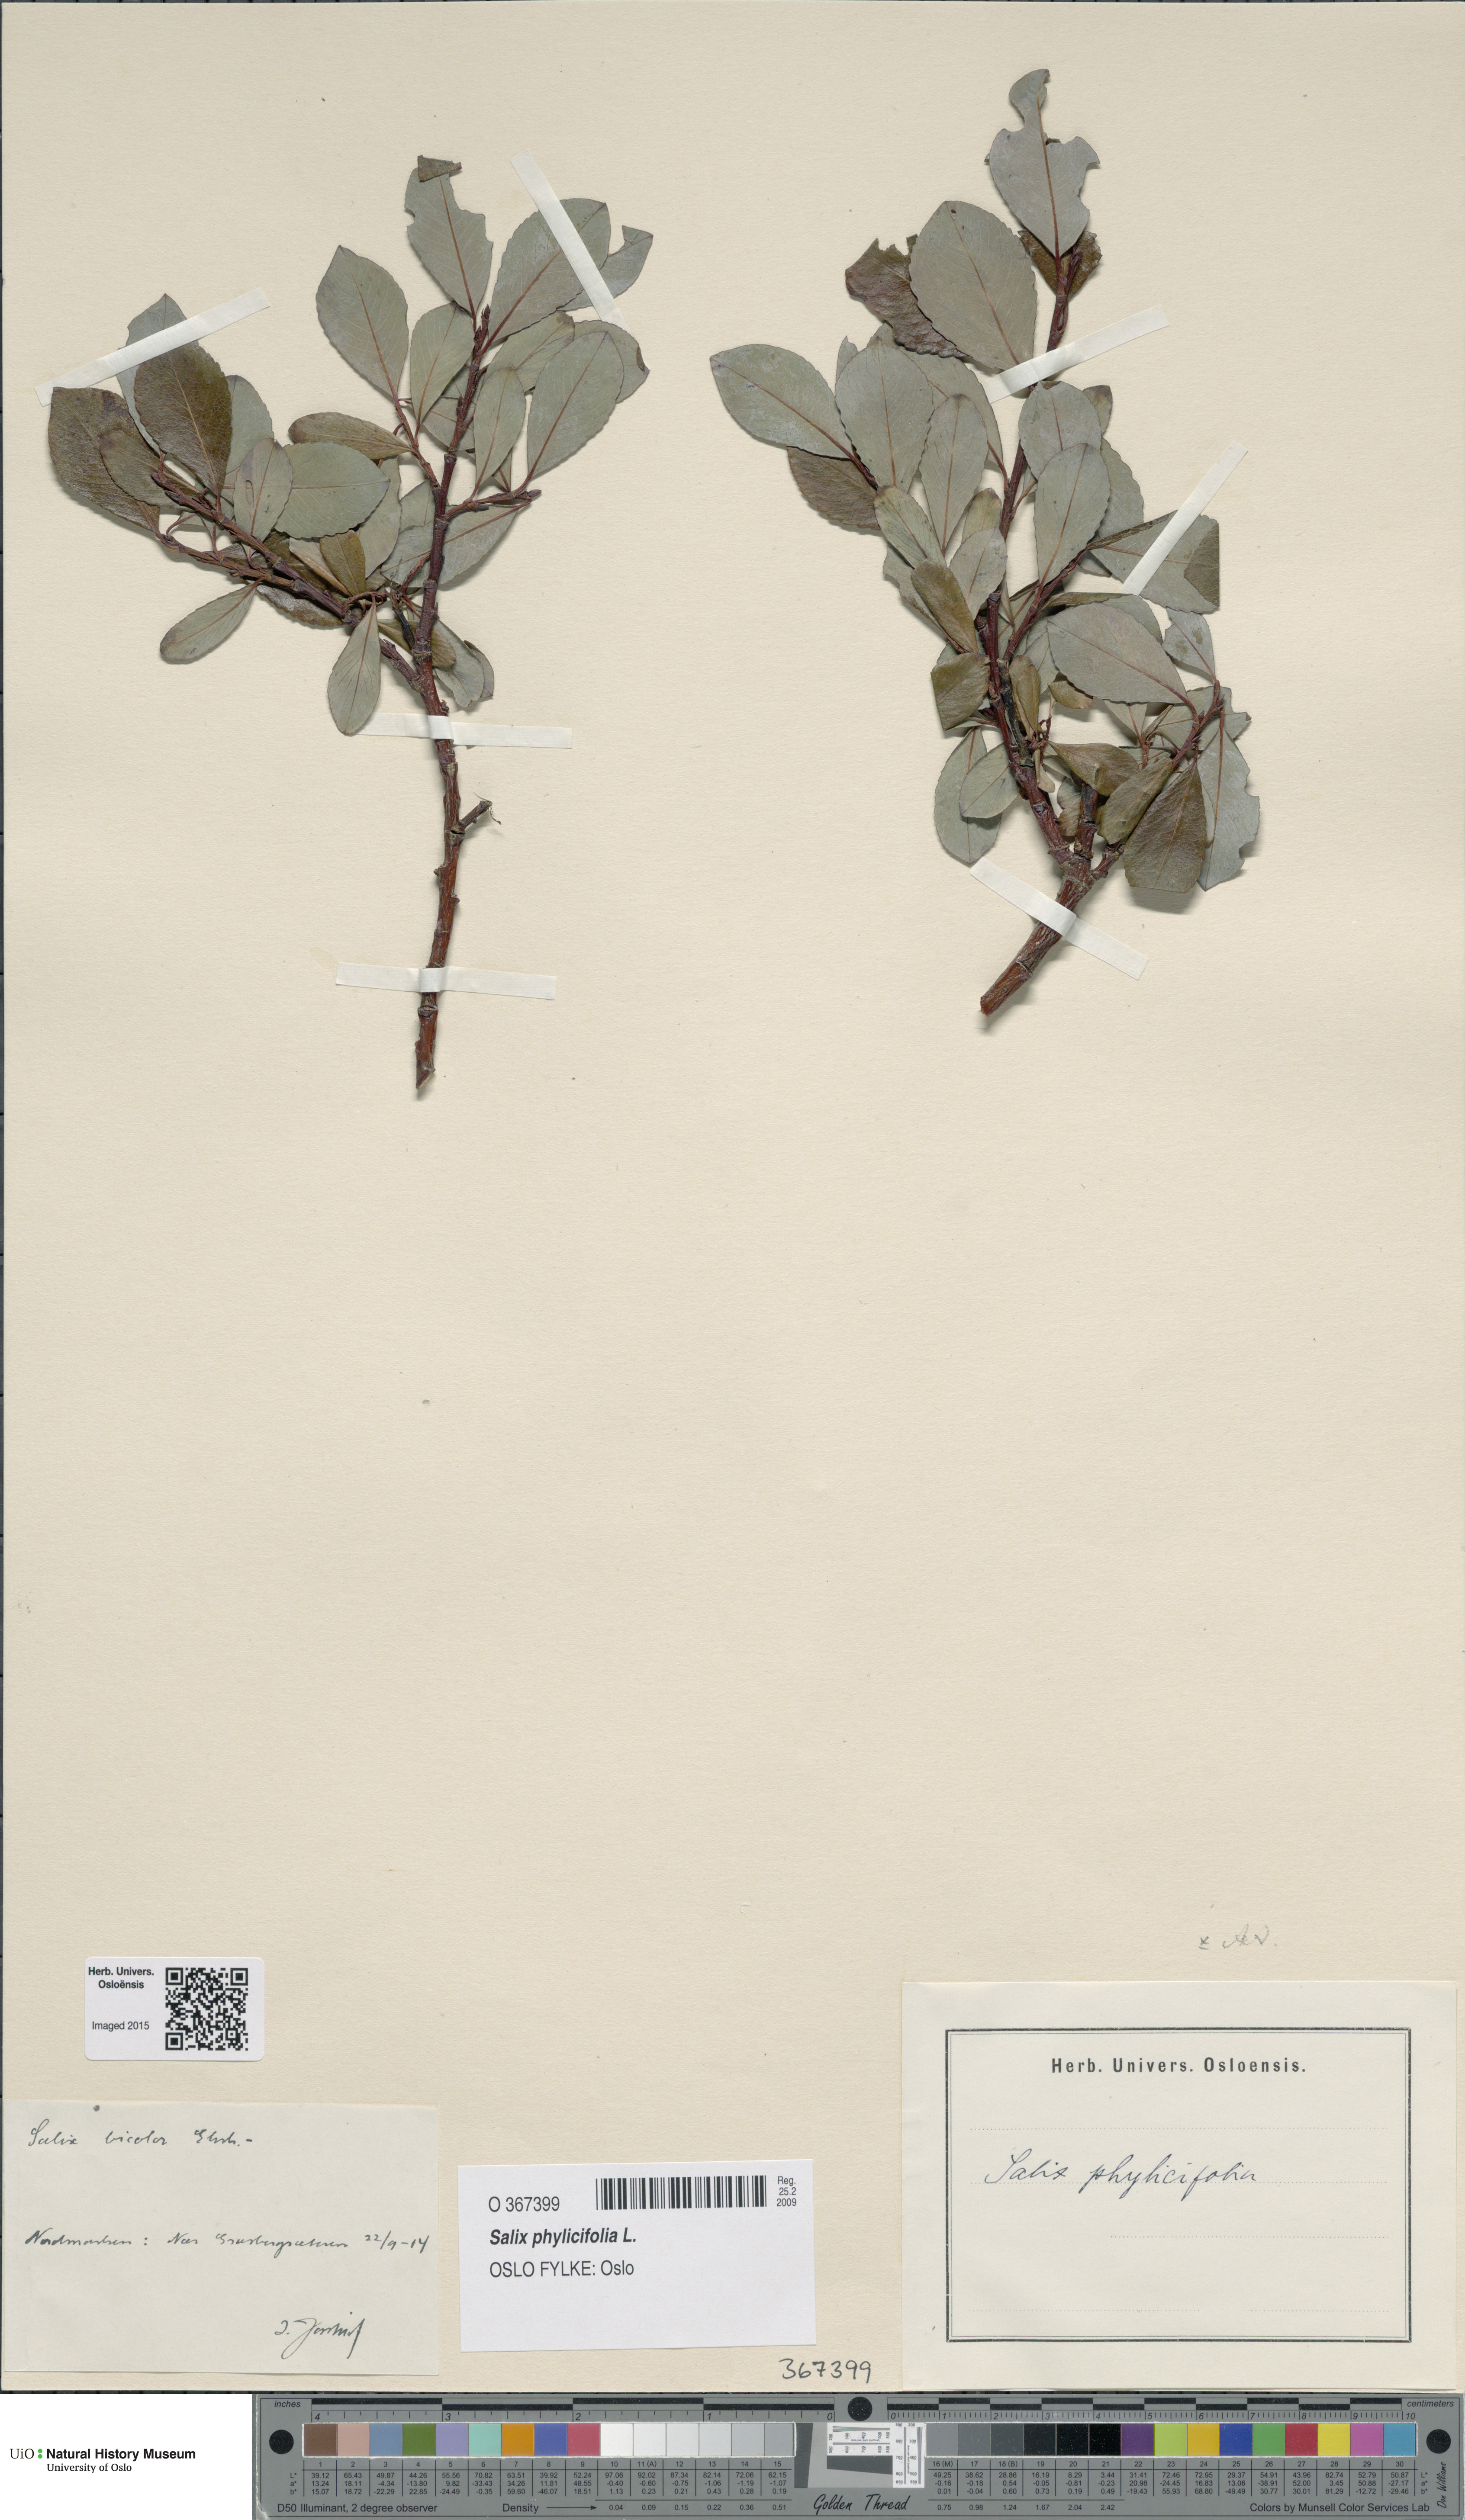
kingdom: Plantae
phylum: Tracheophyta
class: Magnoliopsida
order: Malpighiales
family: Salicaceae
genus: Salix
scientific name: Salix phylicifolia
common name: Tea-leaved willow
